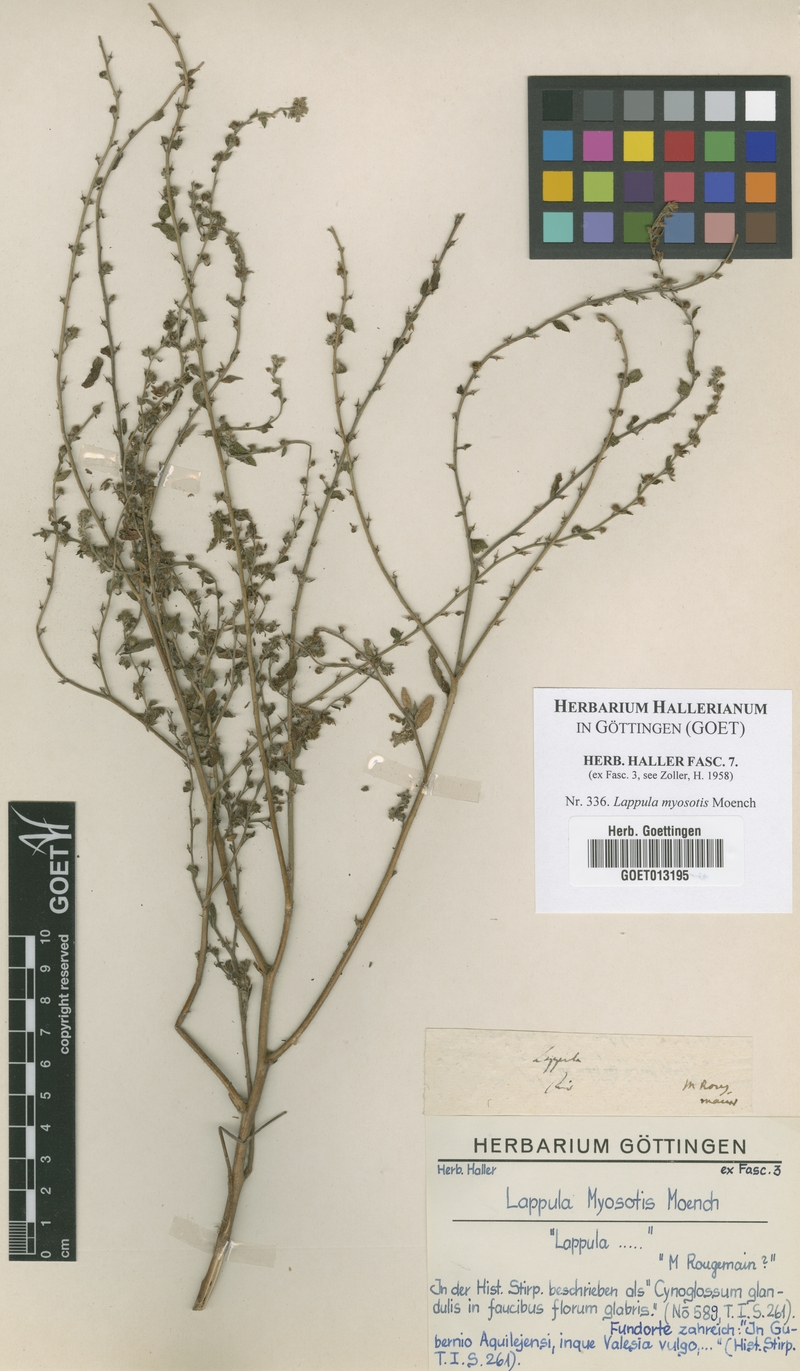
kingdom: Plantae
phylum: Tracheophyta
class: Magnoliopsida
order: Boraginales
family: Boraginaceae
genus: Lappula
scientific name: Lappula squarrosa
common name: European stickseed
